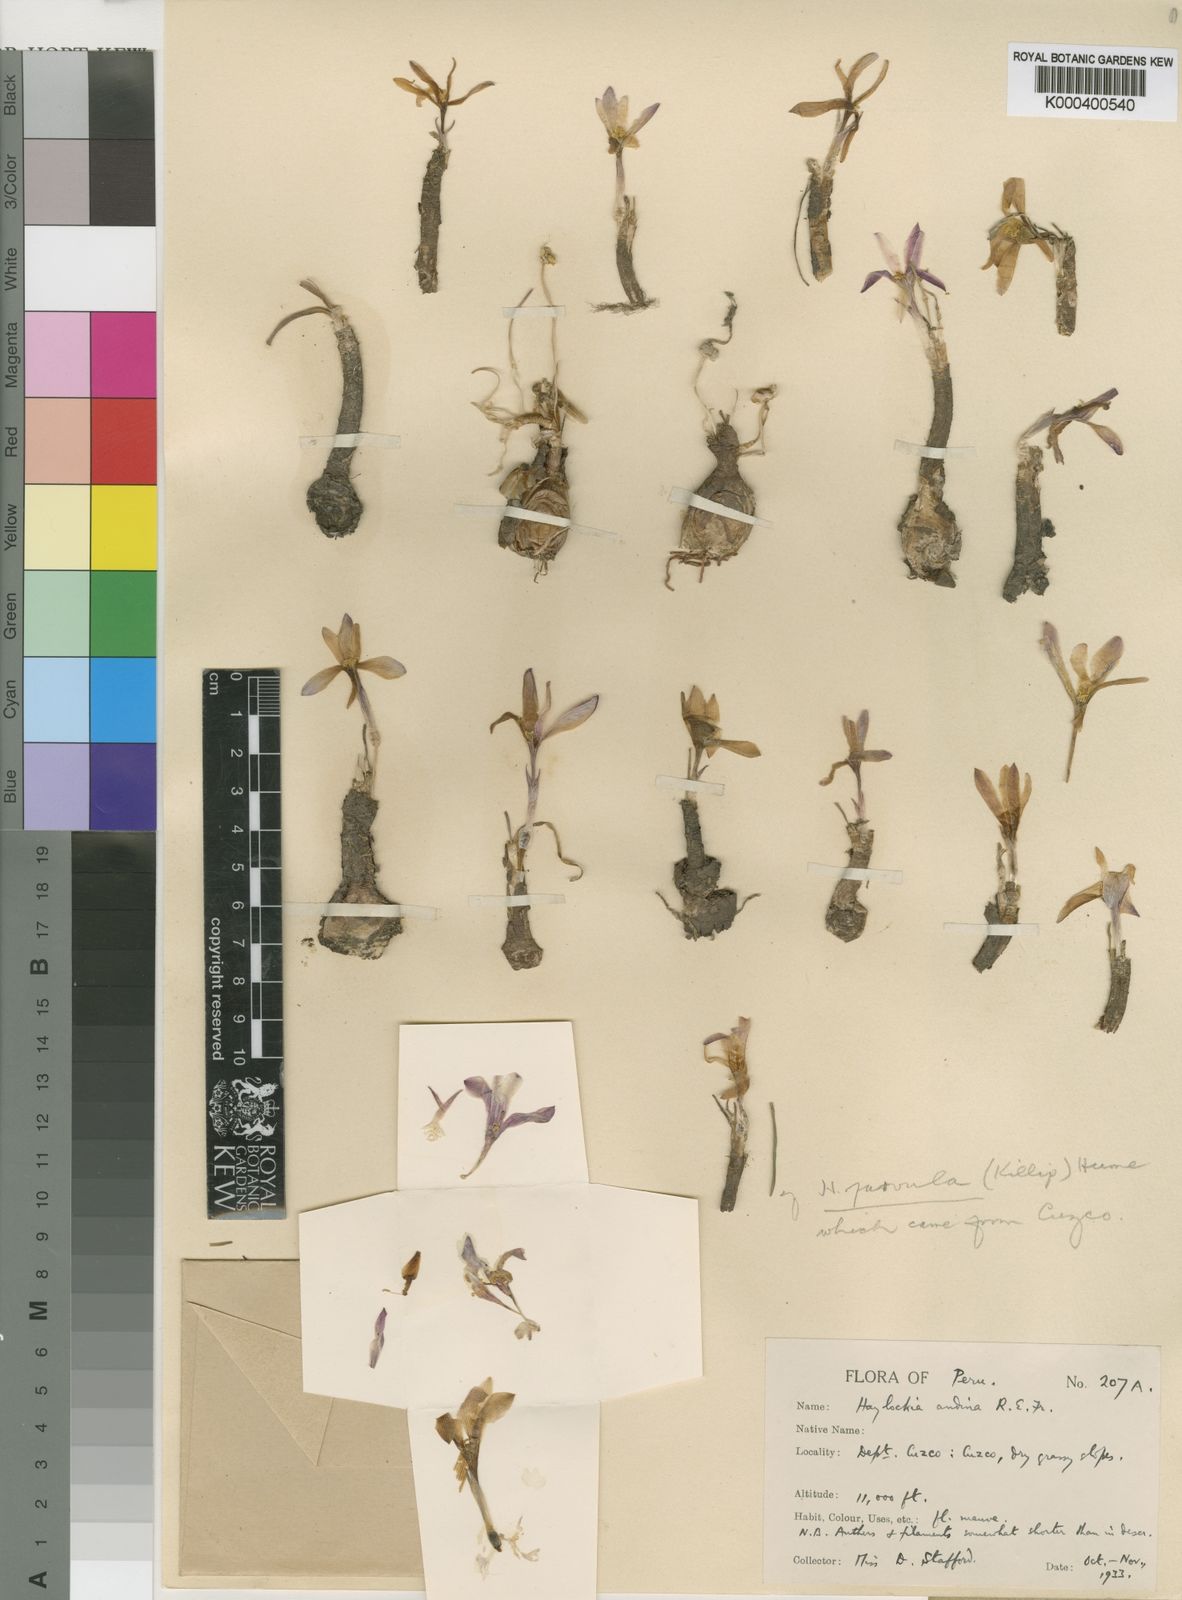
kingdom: Plantae
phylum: Tracheophyta
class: Liliopsida
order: Asparagales
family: Amaryllidaceae
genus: Zephyranthes
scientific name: Zephyranthes andina
